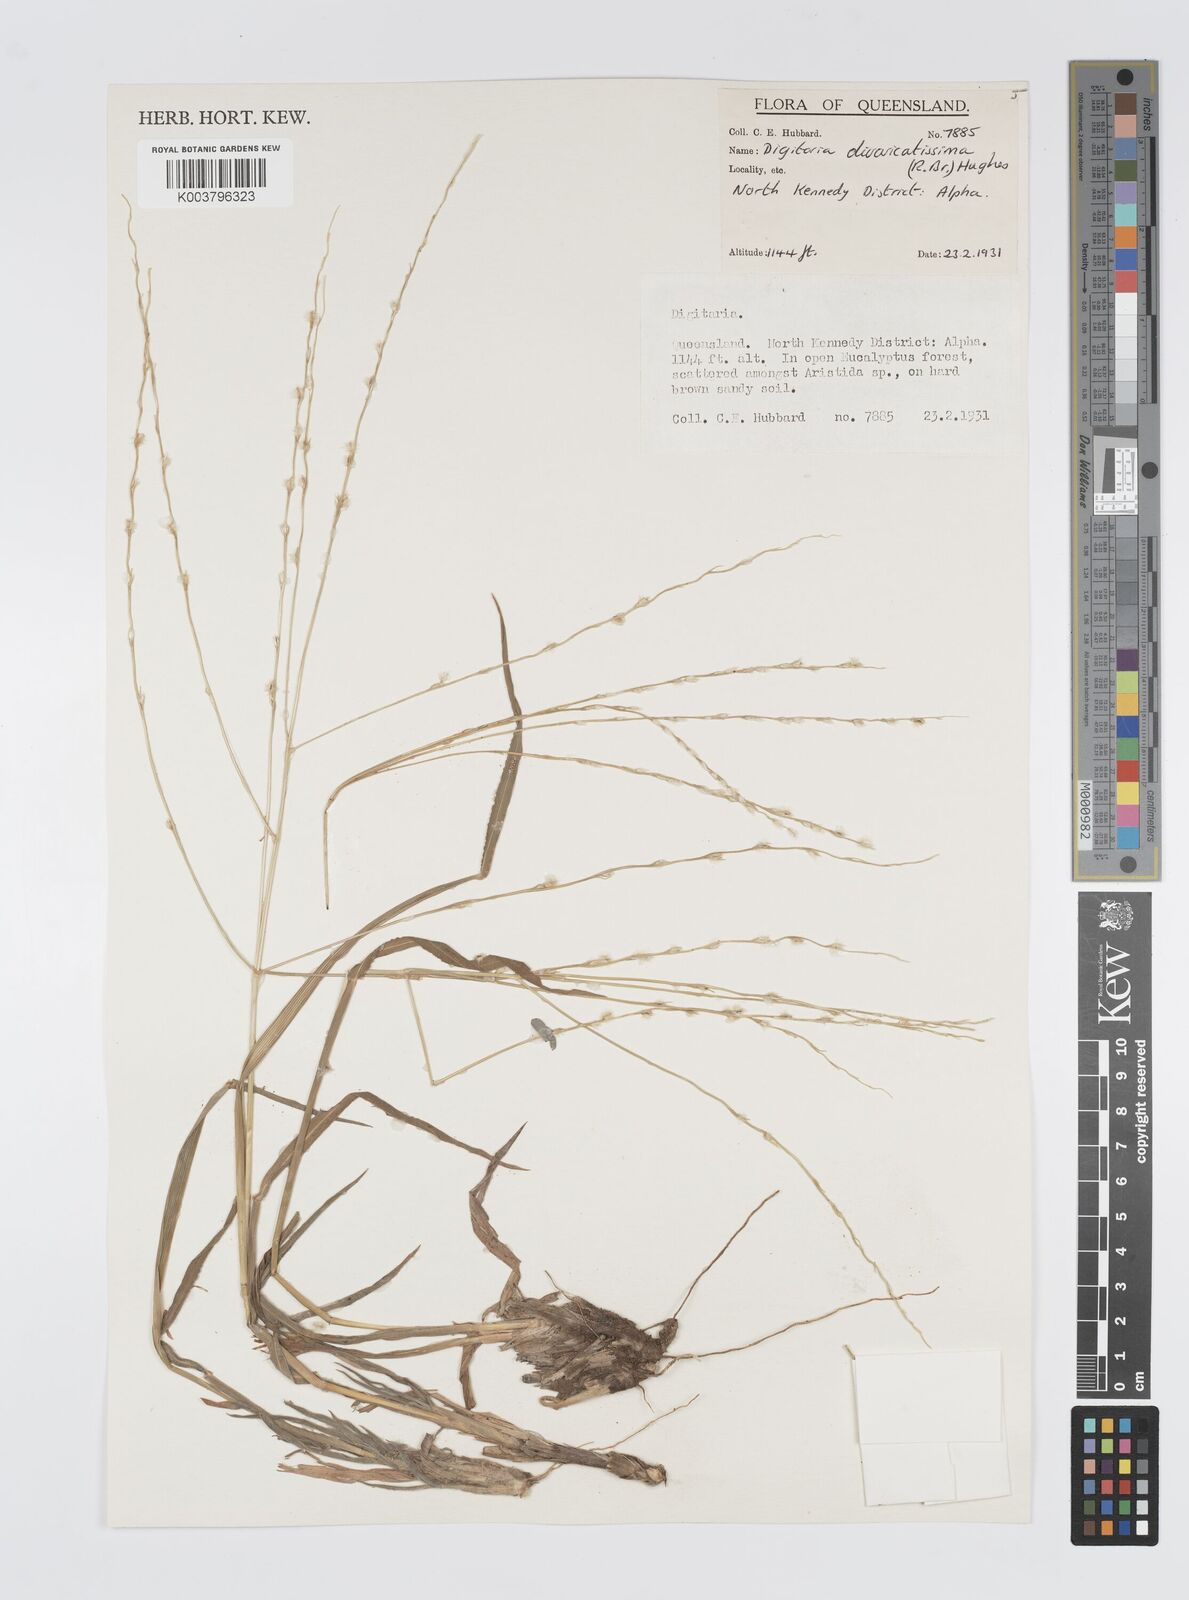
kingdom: Plantae
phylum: Tracheophyta
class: Liliopsida
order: Poales
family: Poaceae
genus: Digitaria
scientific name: Digitaria divaricatissima
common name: Crabgrass
